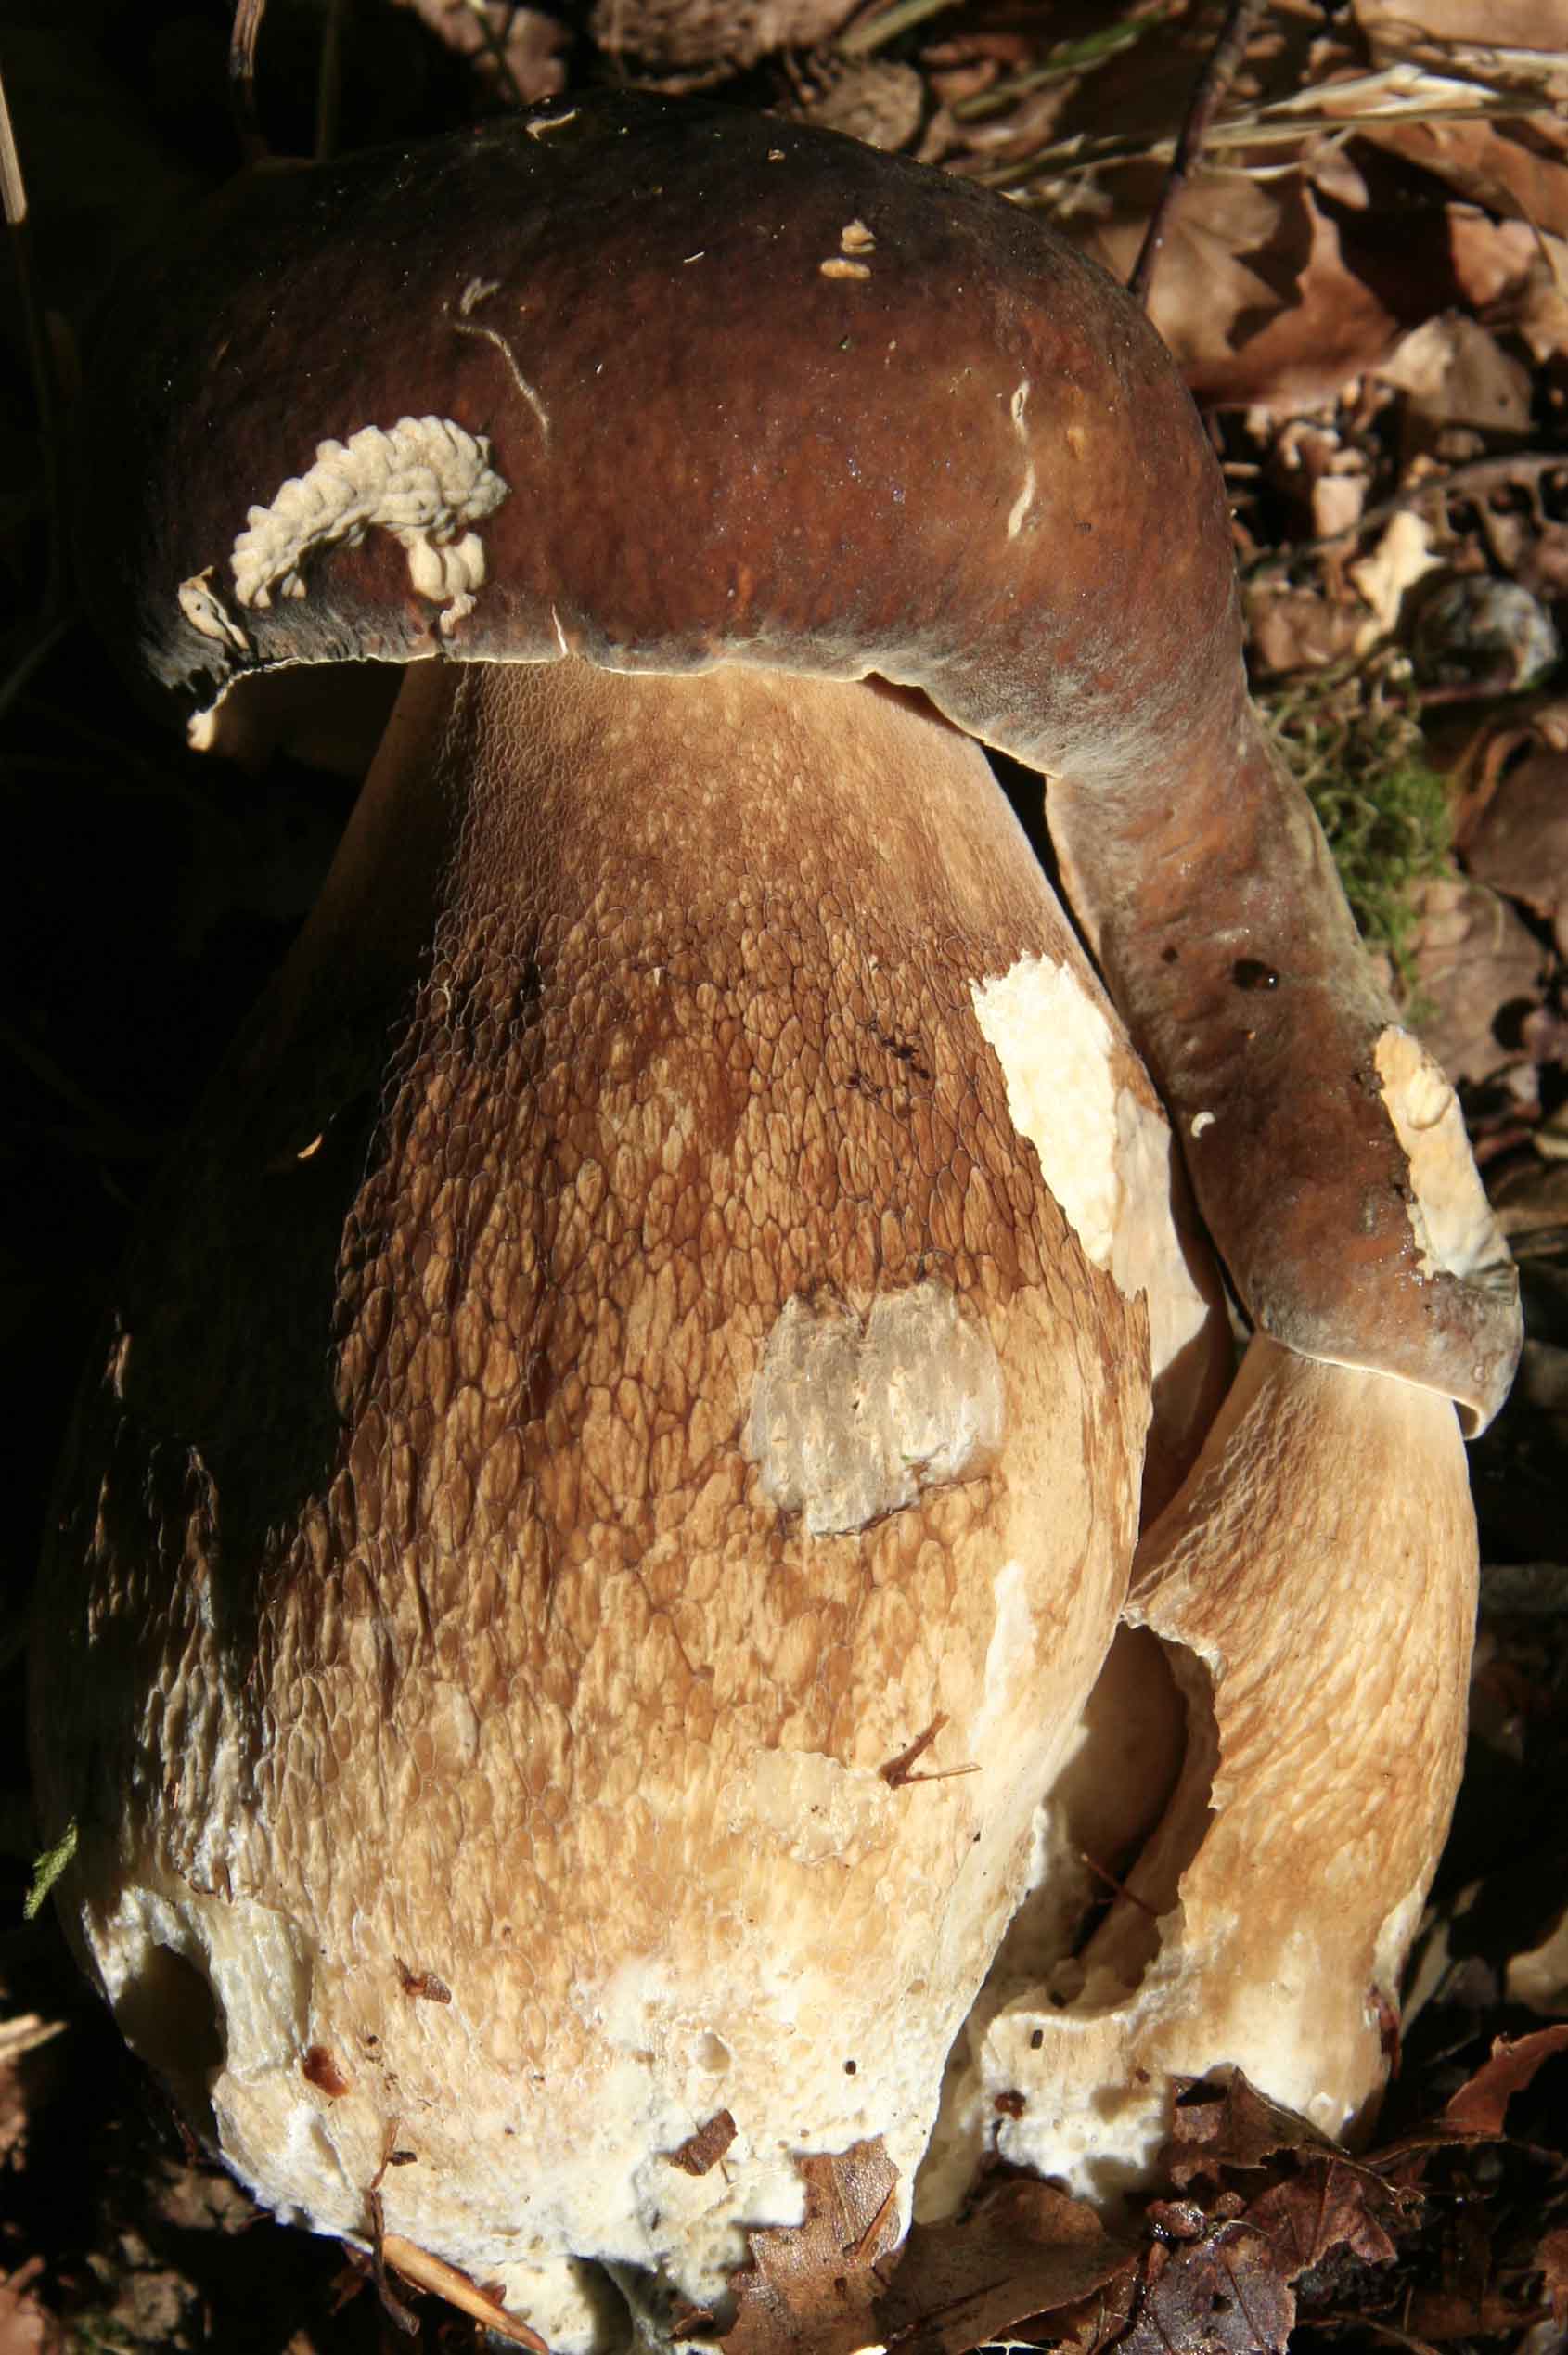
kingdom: Fungi
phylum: Basidiomycota
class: Agaricomycetes
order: Boletales
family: Boletaceae
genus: Boletus
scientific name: Boletus reticulatus
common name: sommer-rørhat
